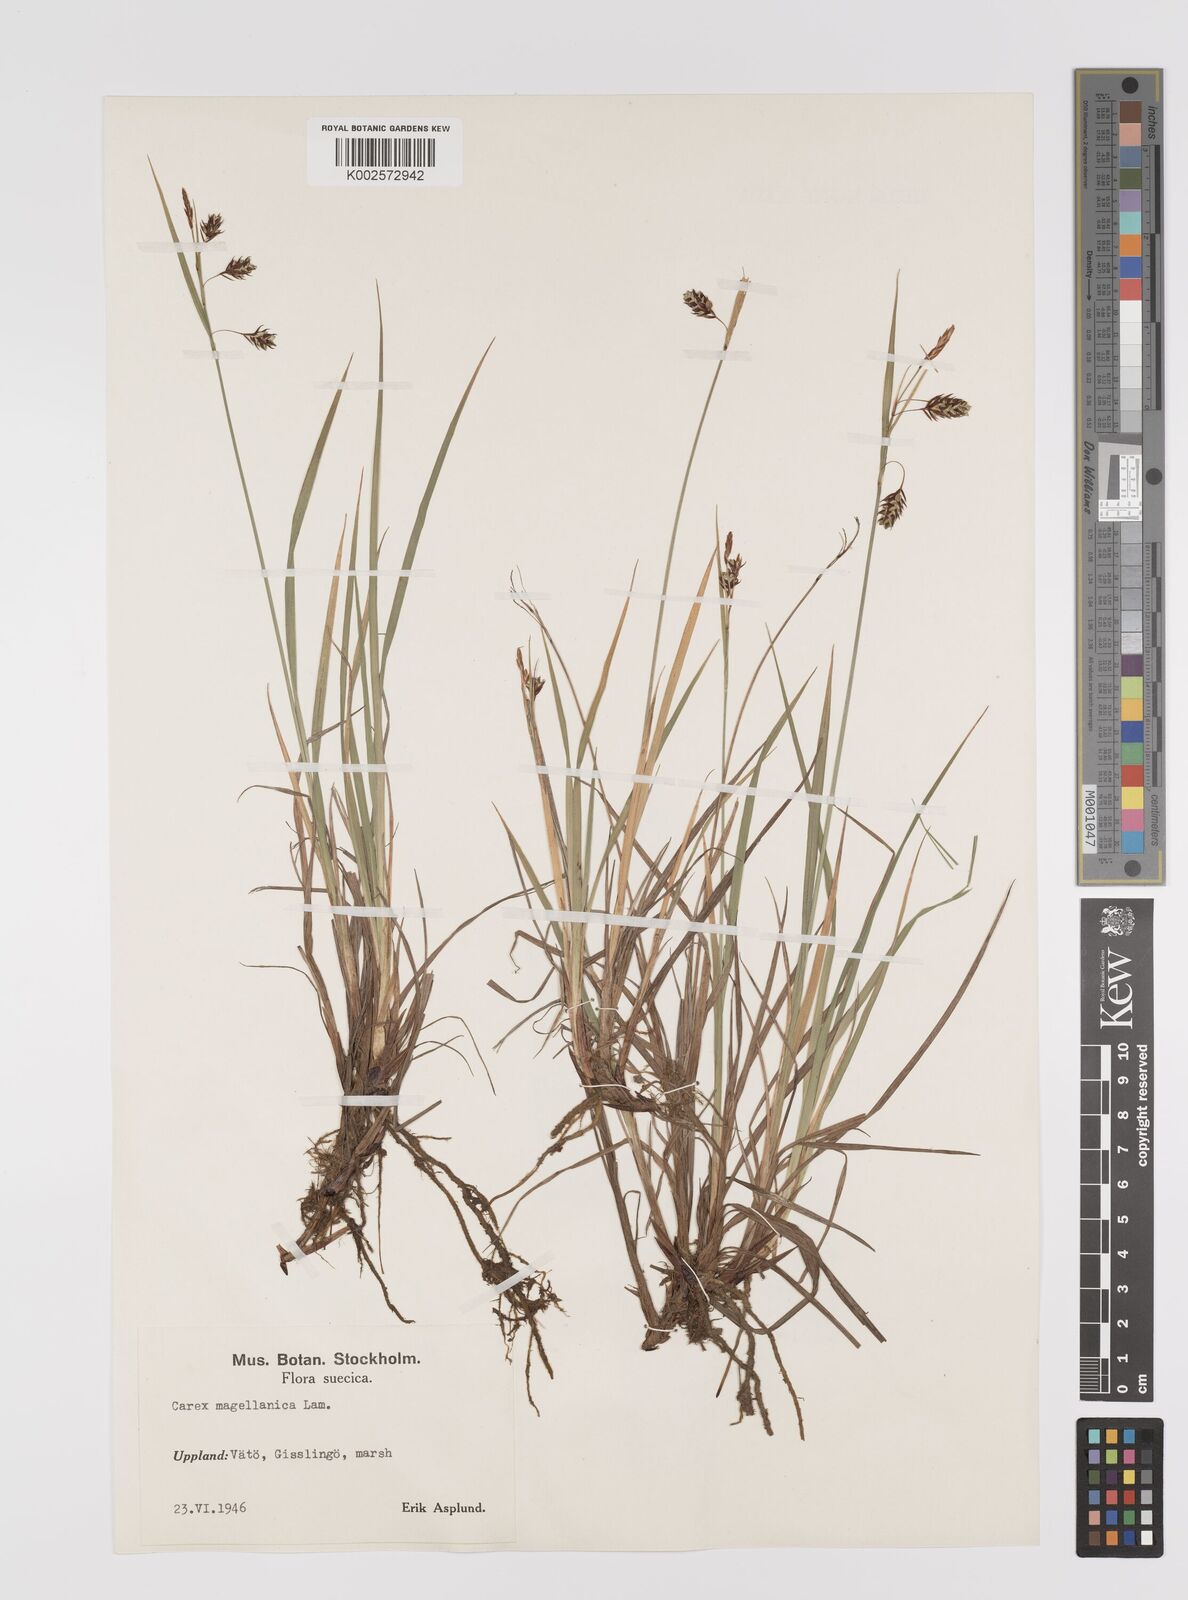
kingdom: Plantae
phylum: Tracheophyta
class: Liliopsida
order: Poales
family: Cyperaceae
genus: Carex
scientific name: Carex magellanica
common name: Bog sedge
